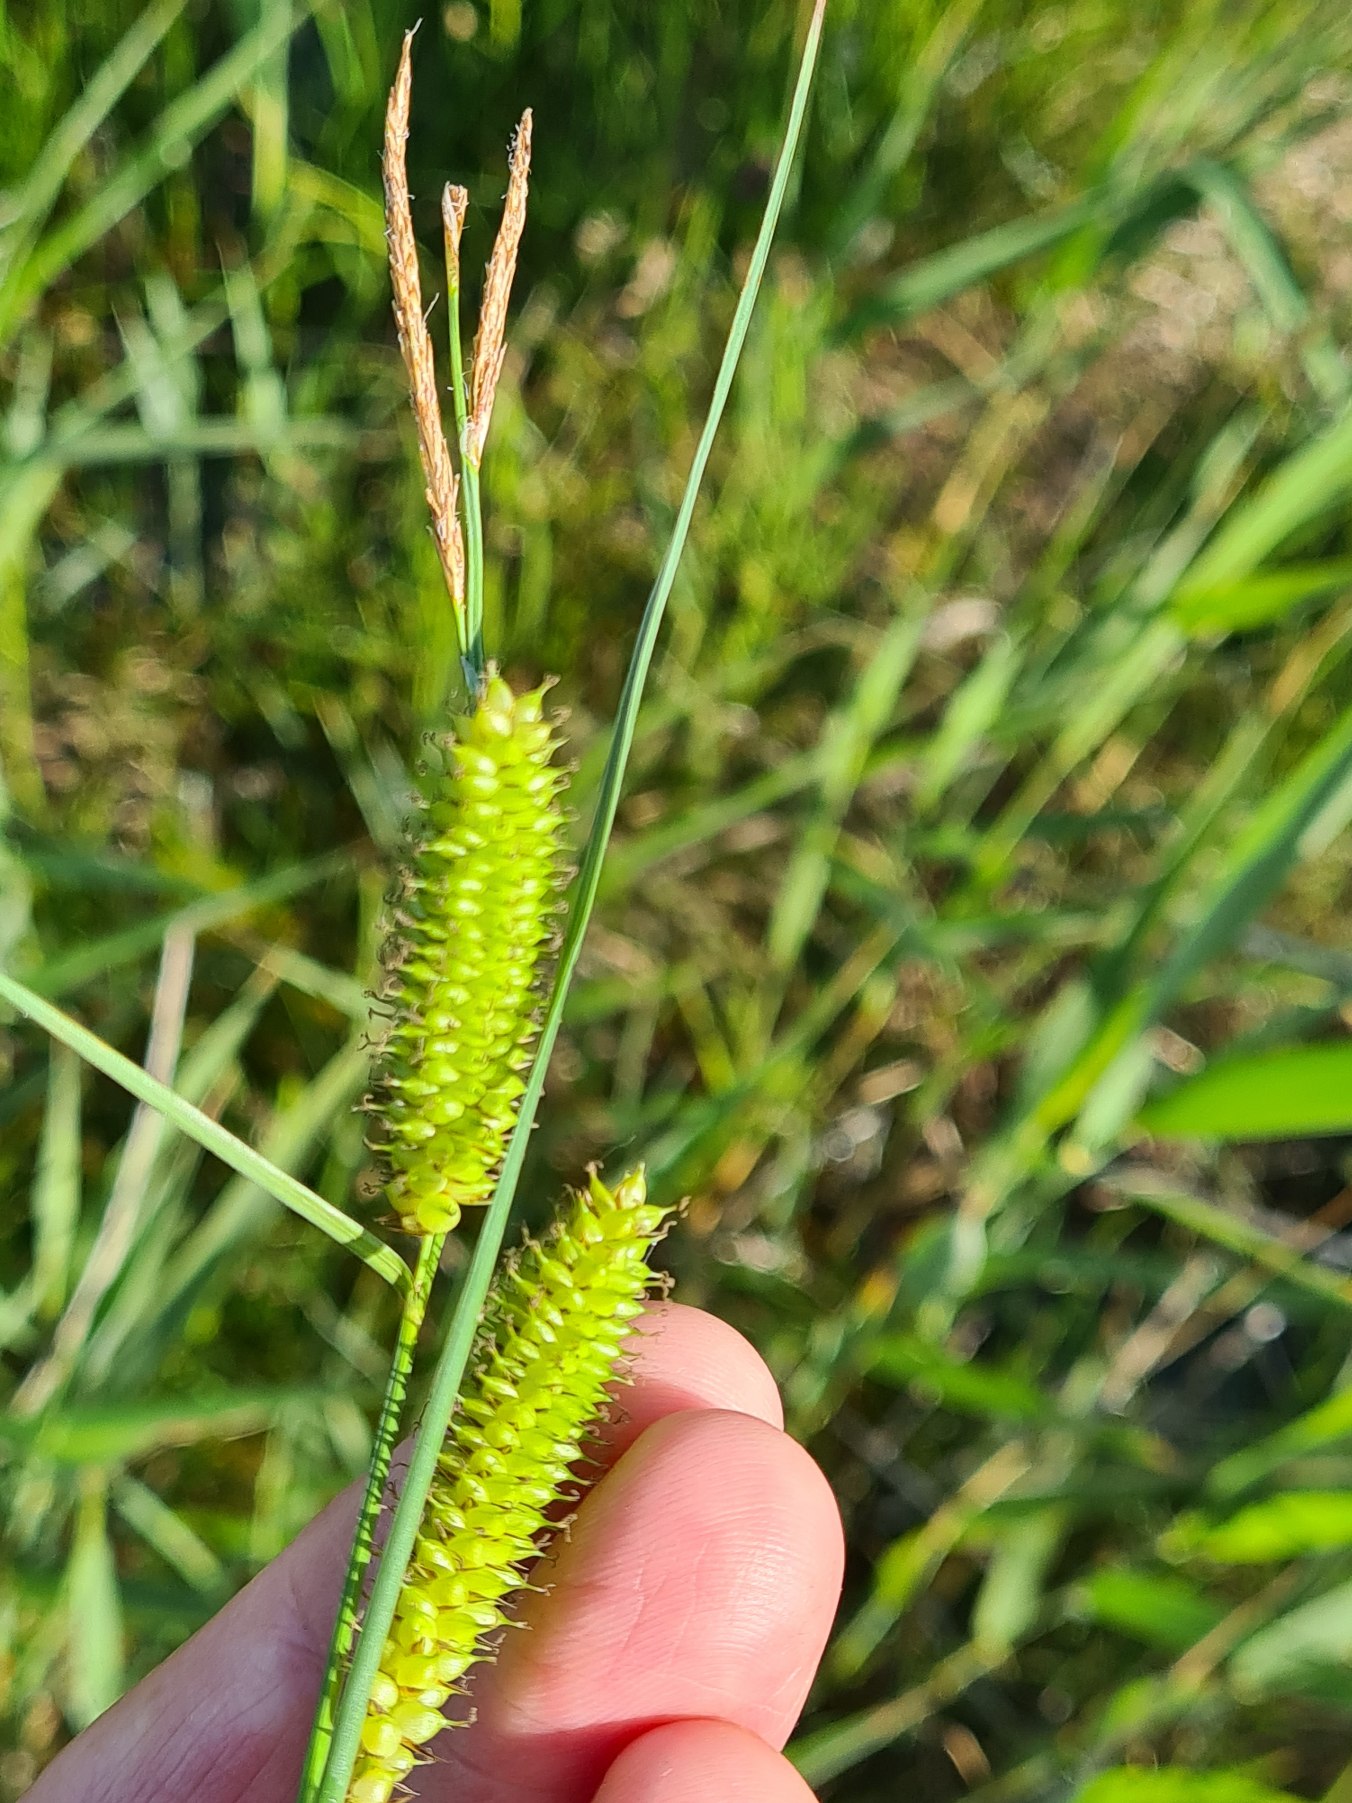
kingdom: Plantae
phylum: Tracheophyta
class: Liliopsida
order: Poales
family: Cyperaceae
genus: Carex
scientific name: Carex rostrata
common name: Næb-star
